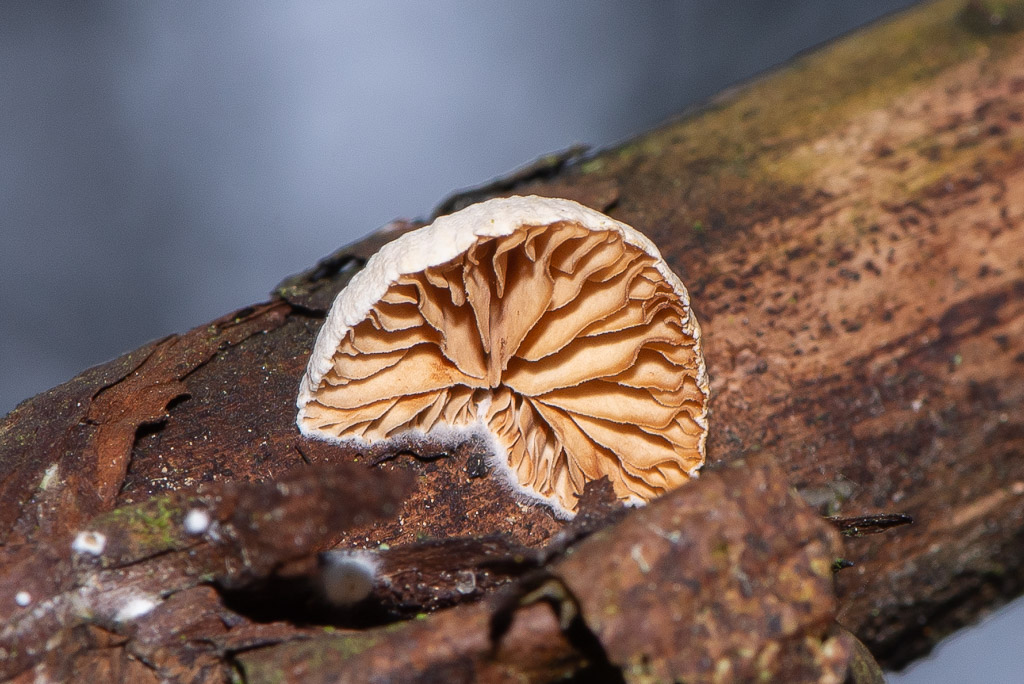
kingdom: Fungi
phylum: Basidiomycota
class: Agaricomycetes
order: Agaricales
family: Crepidotaceae
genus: Crepidotus
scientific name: Crepidotus
